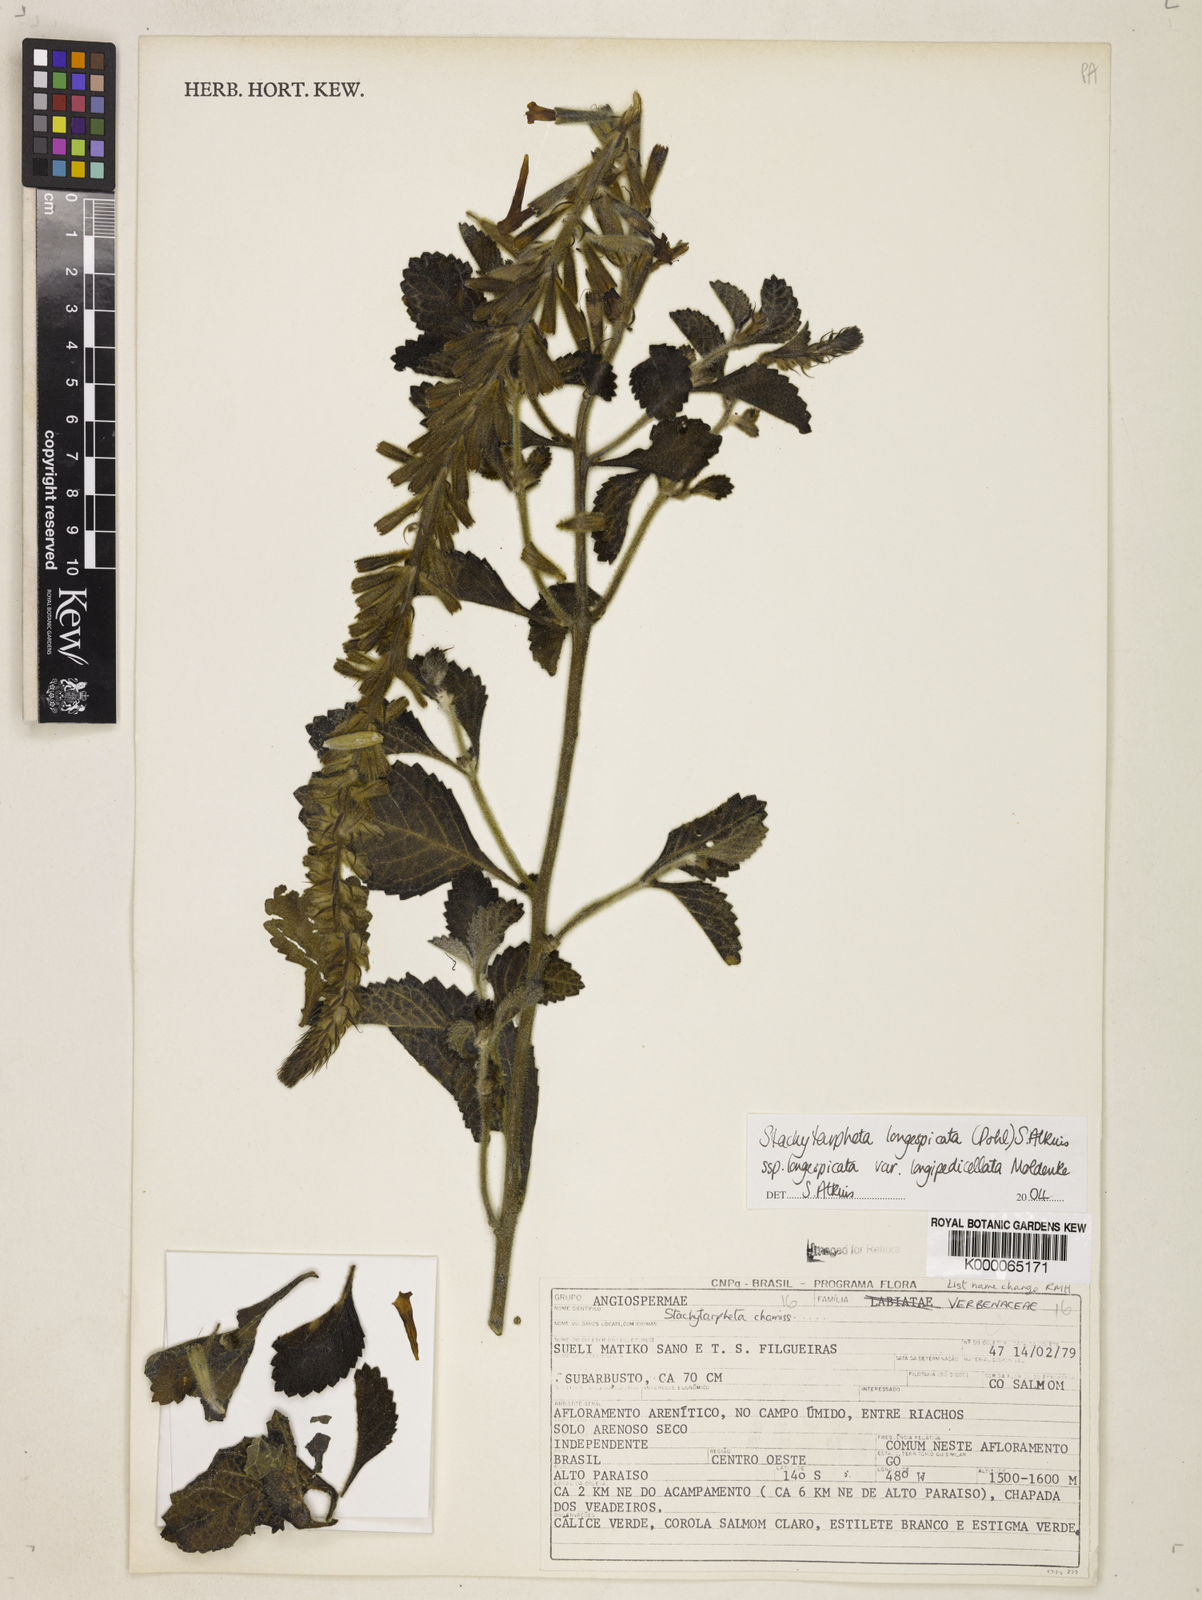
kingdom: Plantae
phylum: Tracheophyta
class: Magnoliopsida
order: Lamiales
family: Verbenaceae
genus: Stachytarpheta
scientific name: Stachytarpheta longispicata
